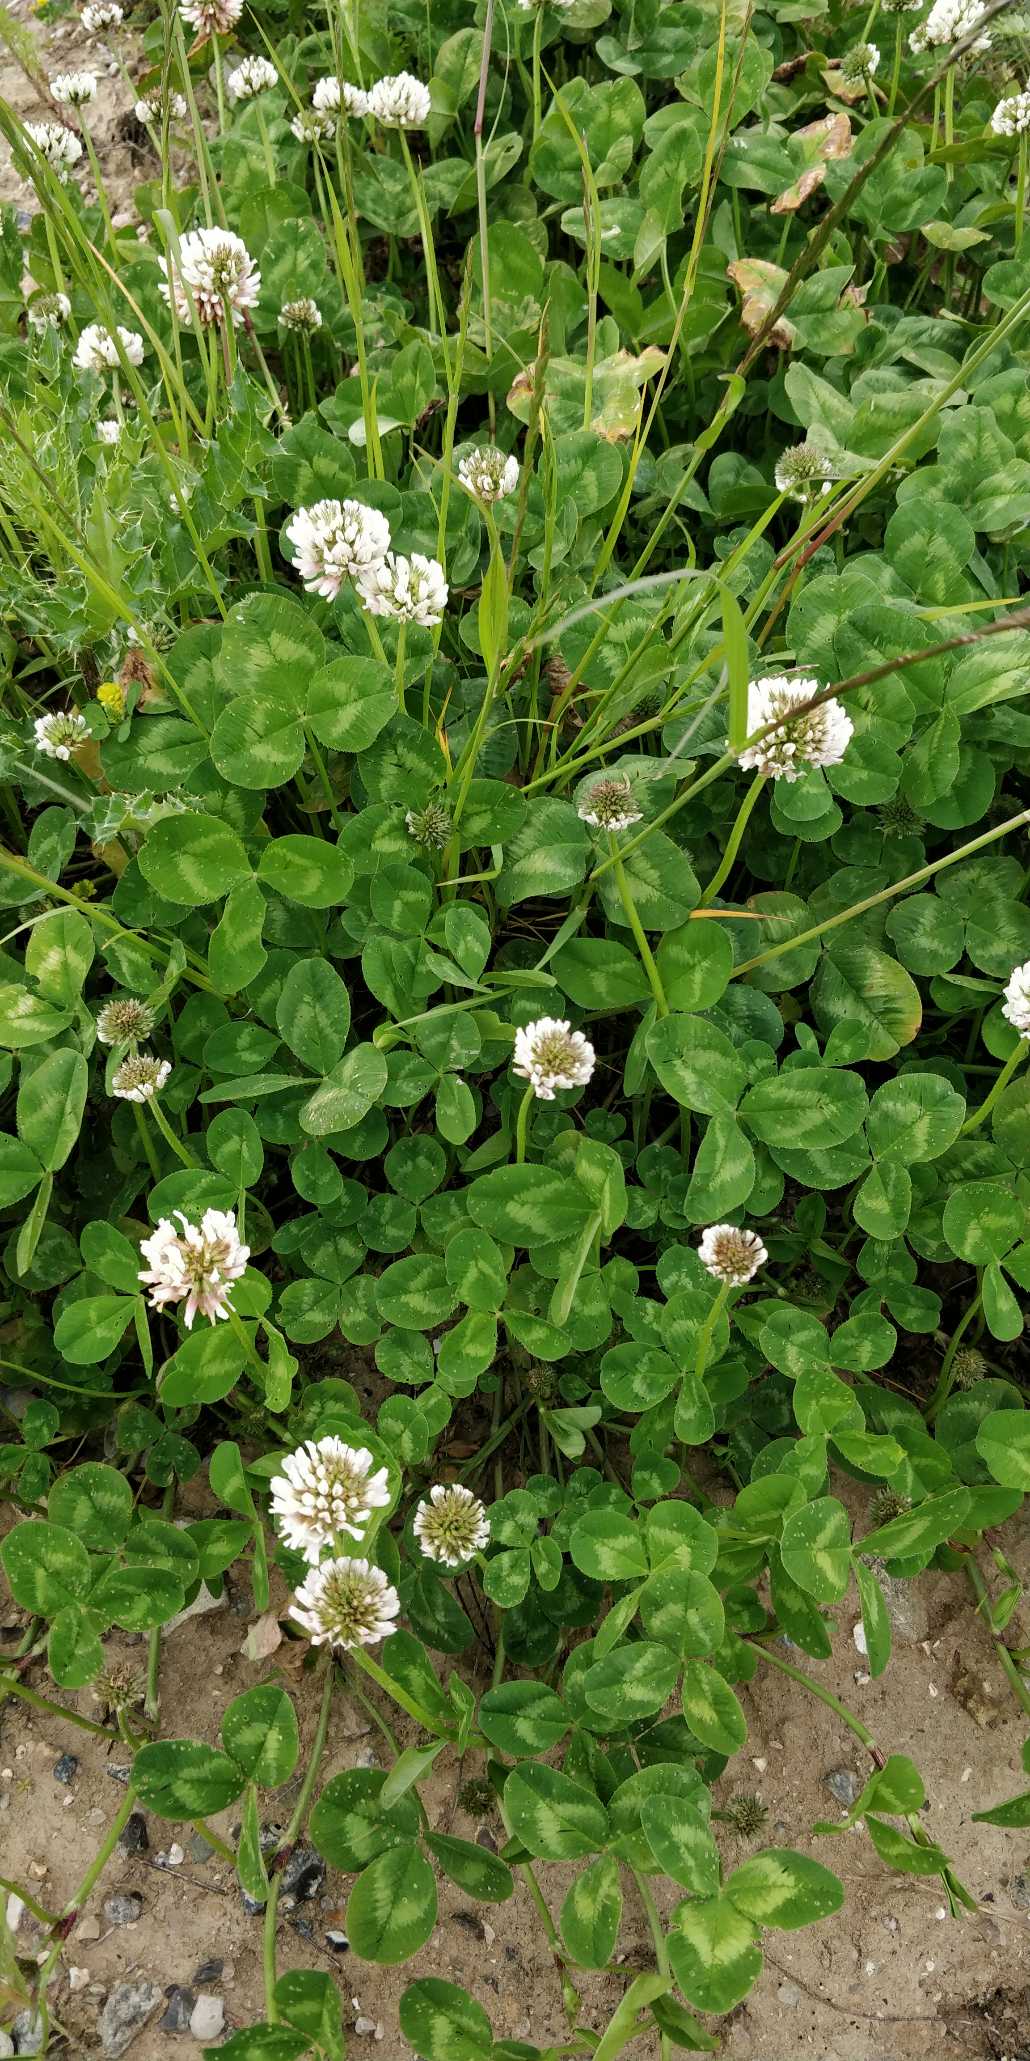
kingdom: Plantae
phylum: Tracheophyta
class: Magnoliopsida
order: Fabales
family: Fabaceae
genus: Trifolium
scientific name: Trifolium repens
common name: Hvid-kløver
